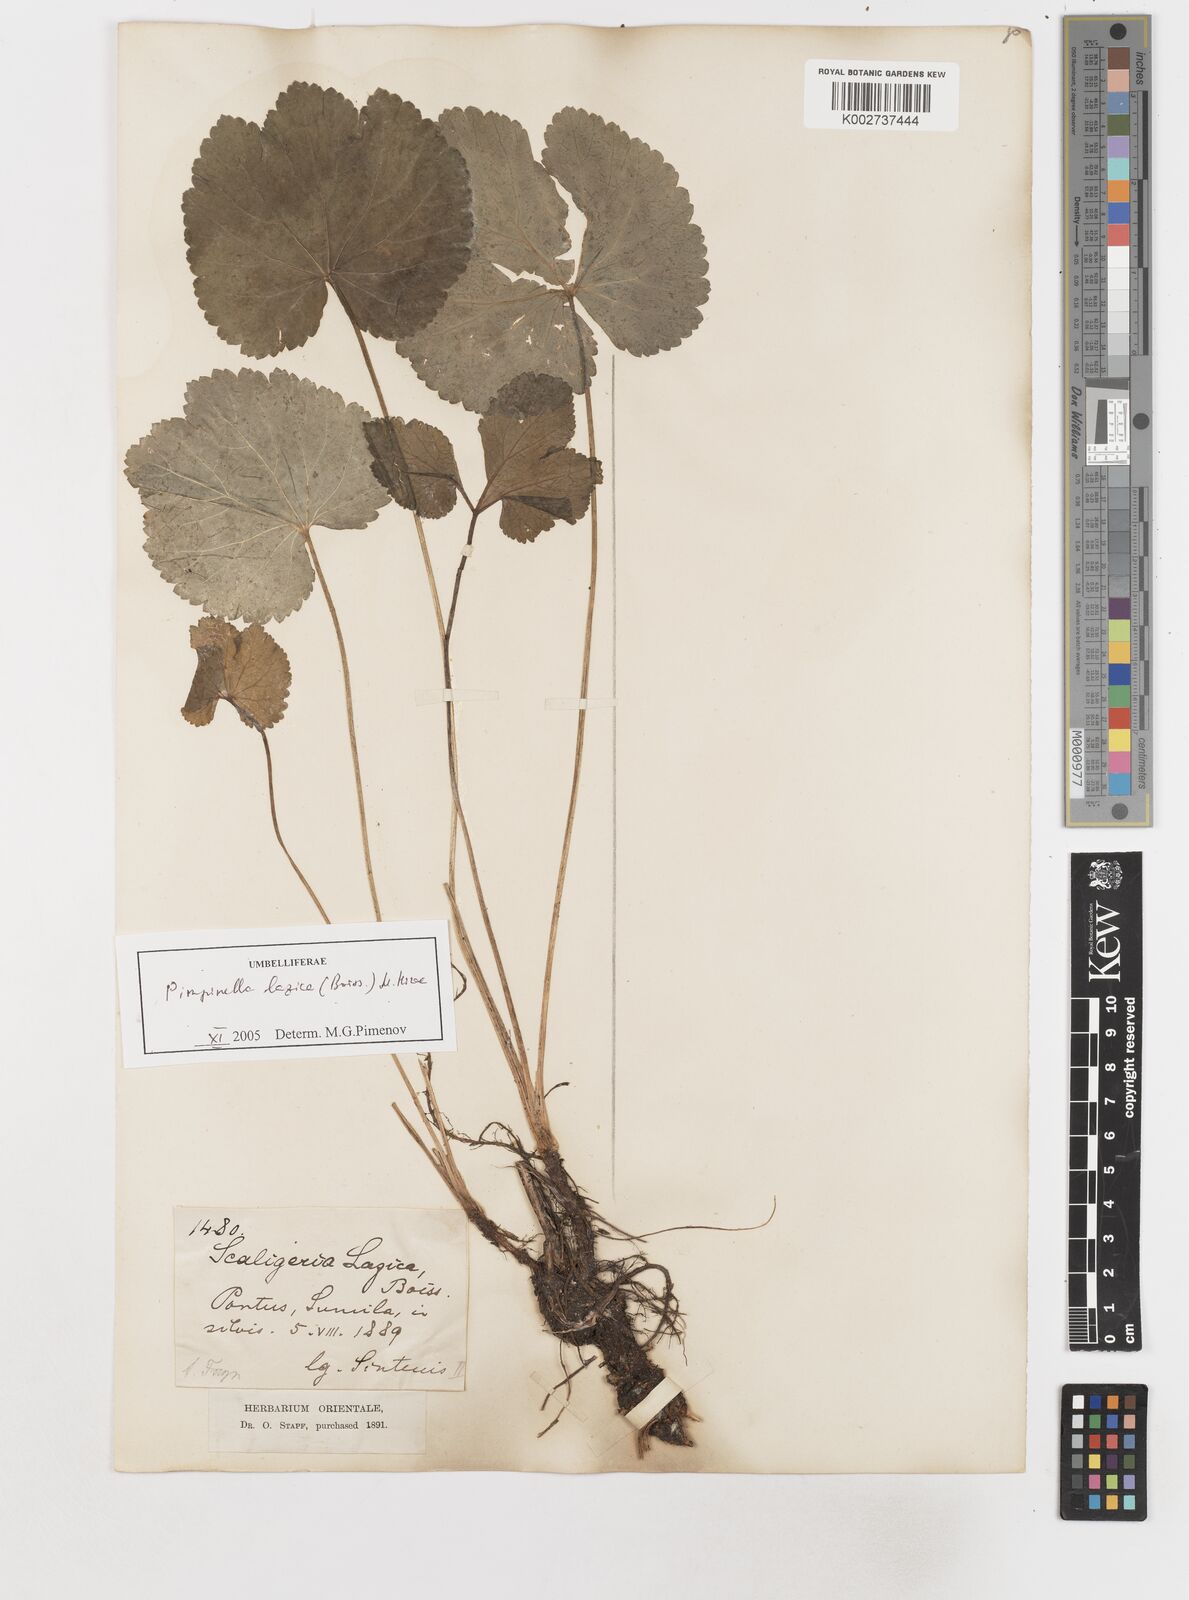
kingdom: Plantae
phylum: Tracheophyta
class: Magnoliopsida
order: Apiales
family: Apiaceae
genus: Scaligeria
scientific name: Scaligeria lazica
